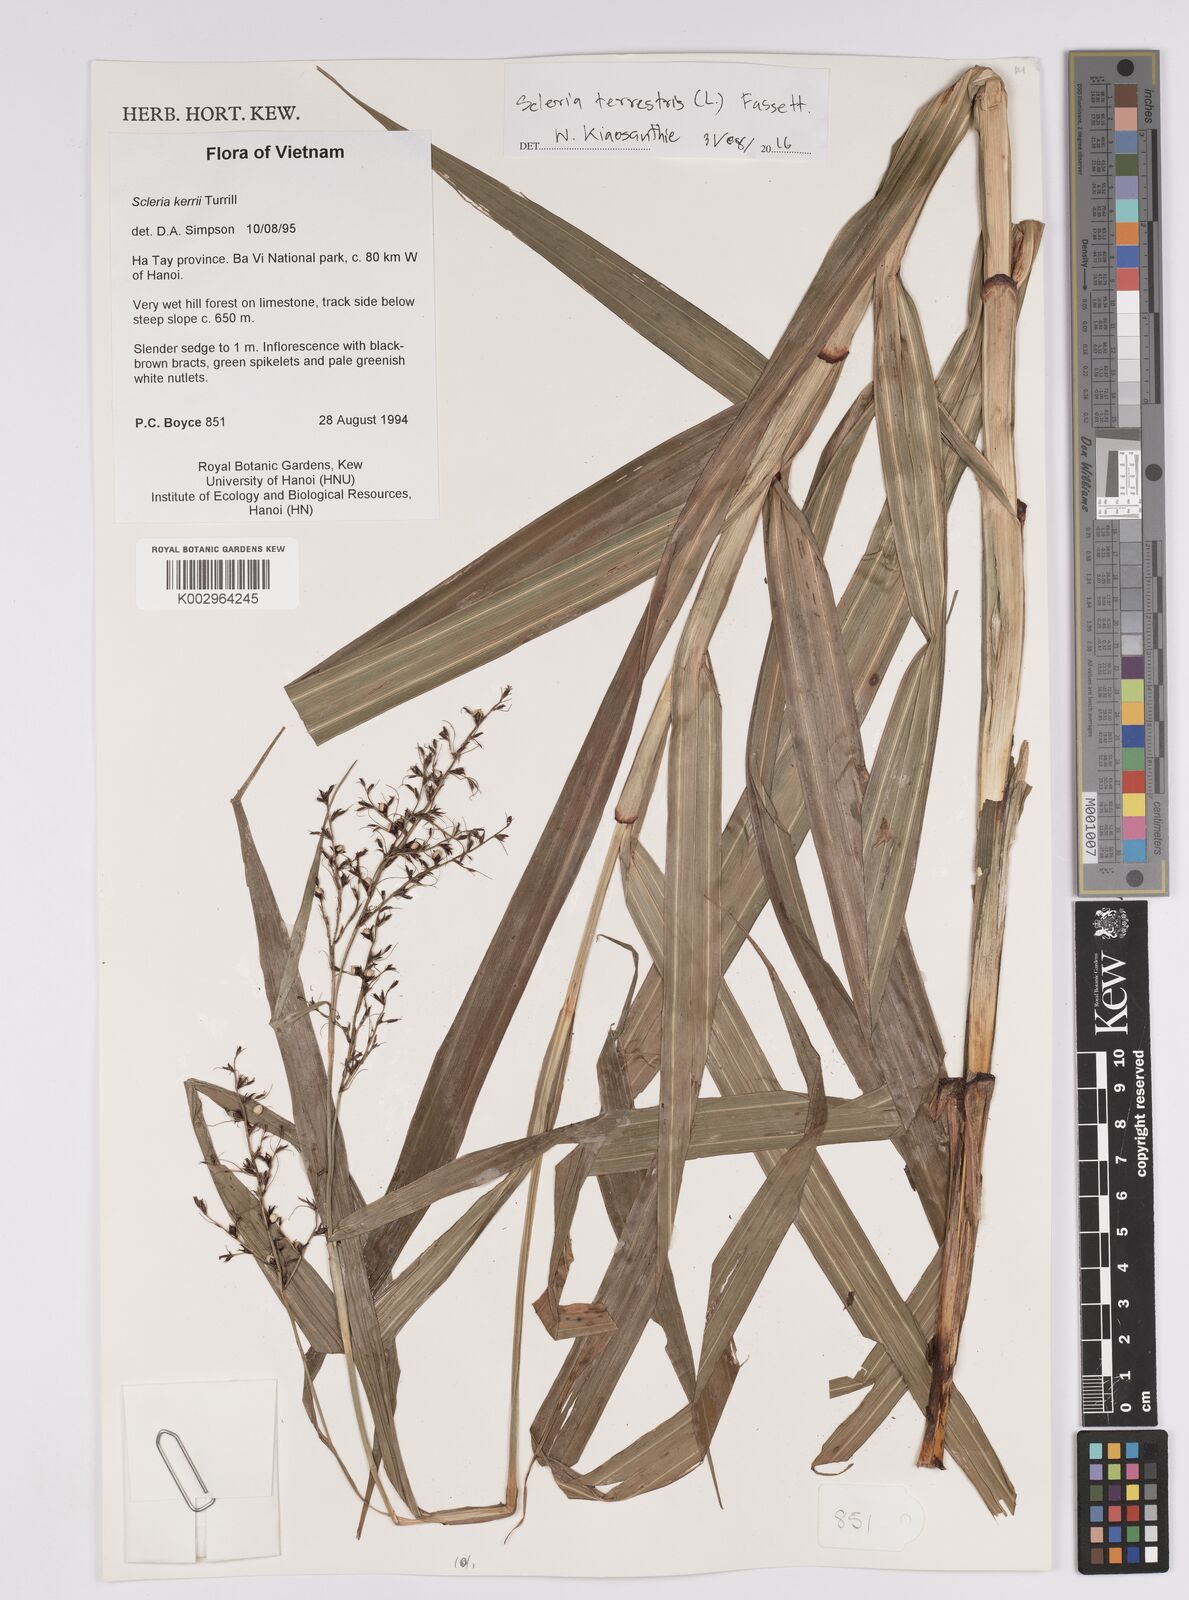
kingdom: Plantae
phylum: Tracheophyta
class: Liliopsida
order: Poales
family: Cyperaceae
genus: Scleria
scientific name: Scleria terrestris
